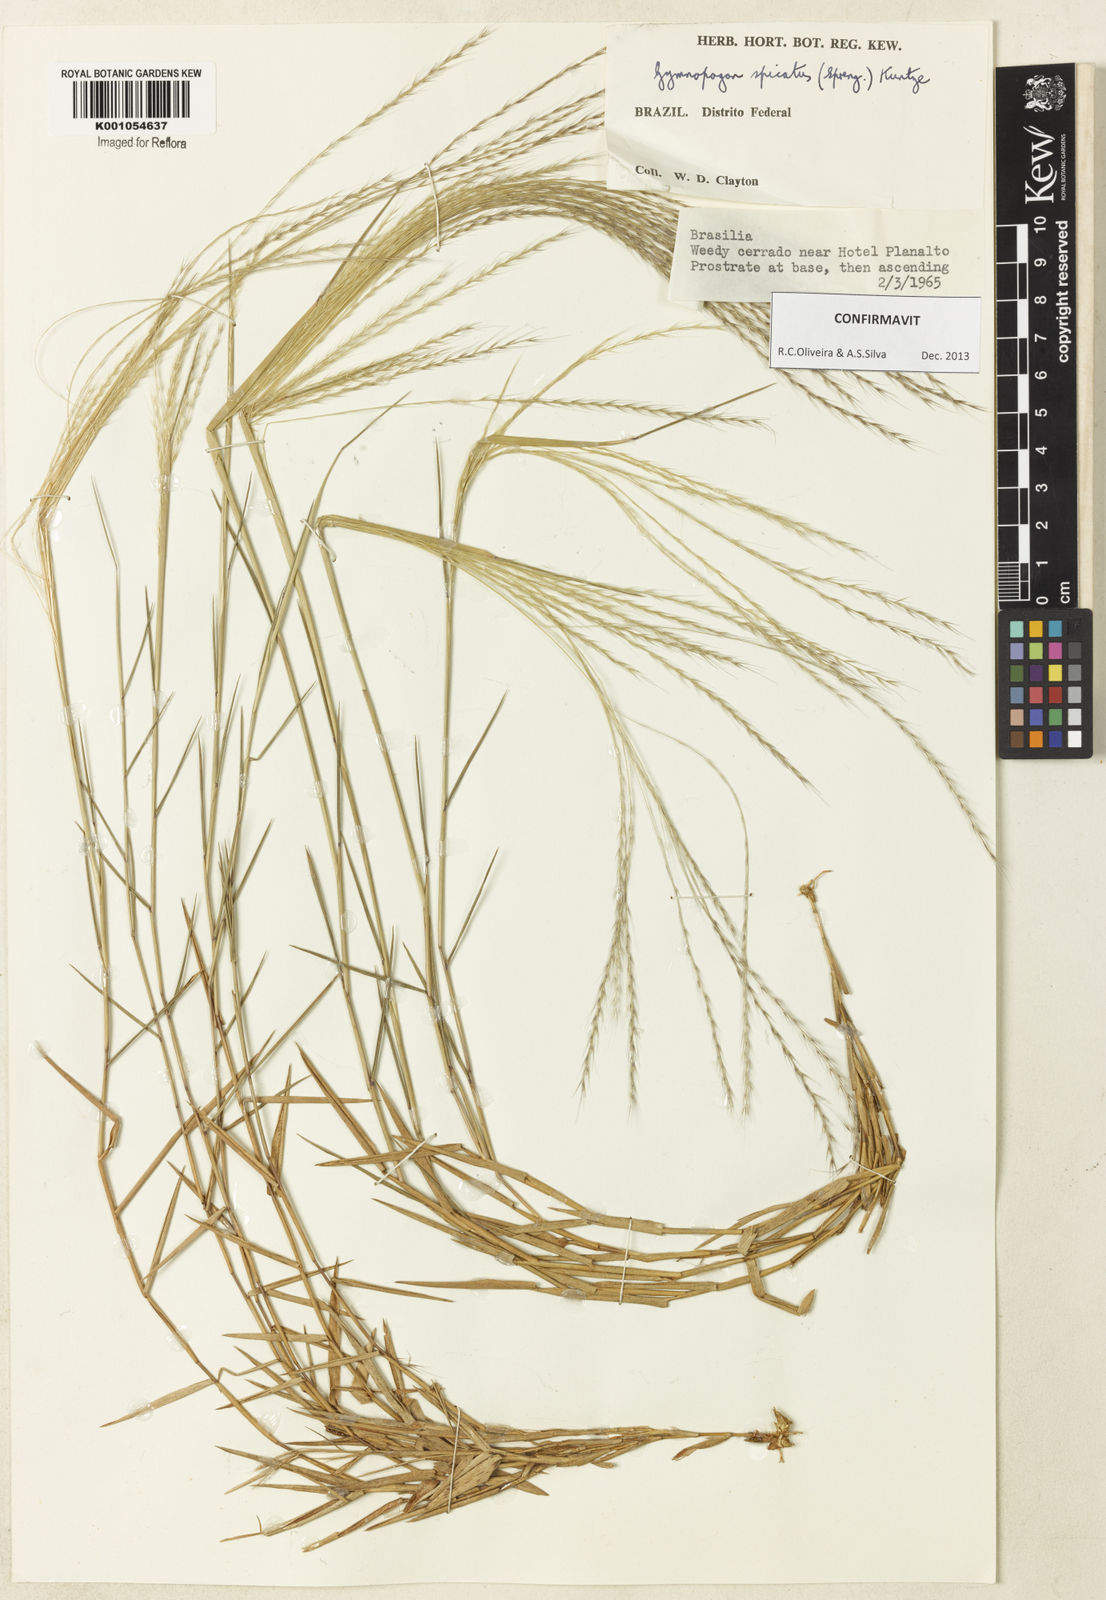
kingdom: Plantae
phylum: Tracheophyta
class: Liliopsida
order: Poales
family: Poaceae
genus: Gymnopogon
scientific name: Gymnopogon spicatus
